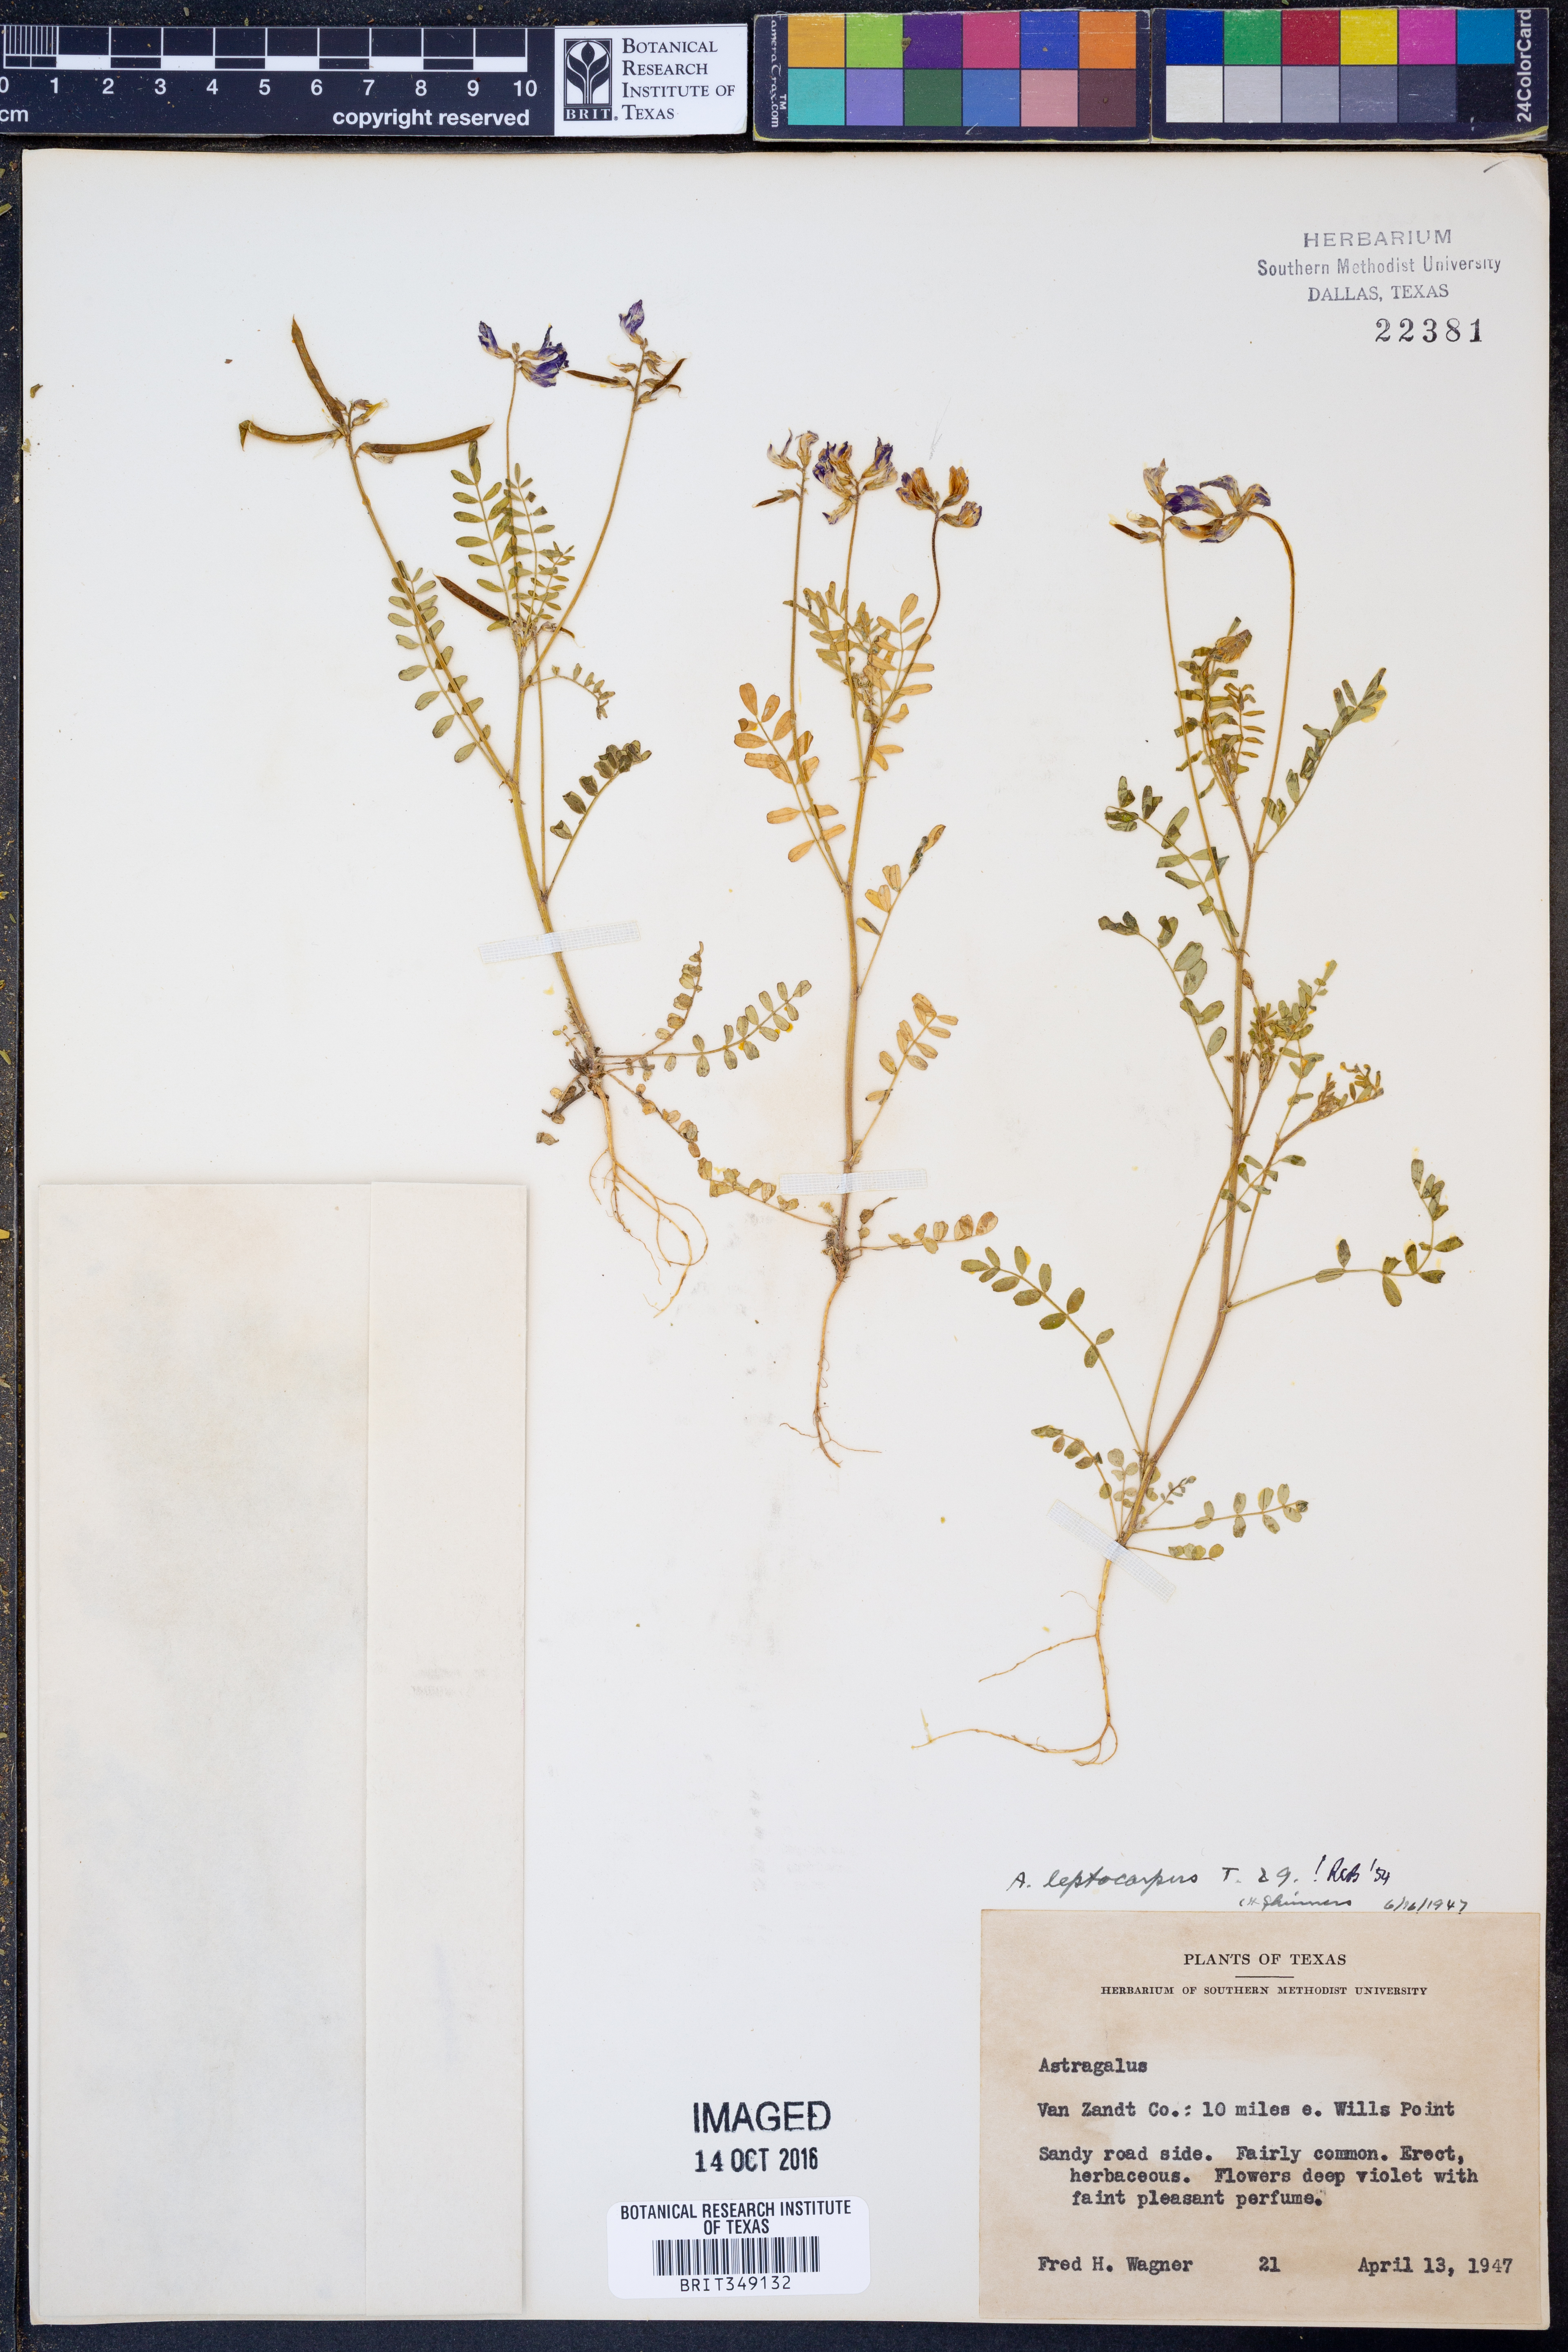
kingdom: Plantae
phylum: Tracheophyta
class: Magnoliopsida
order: Fabales
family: Fabaceae
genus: Astragalus
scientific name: Astragalus leptocarpus
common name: Bodkin milk-vetch
